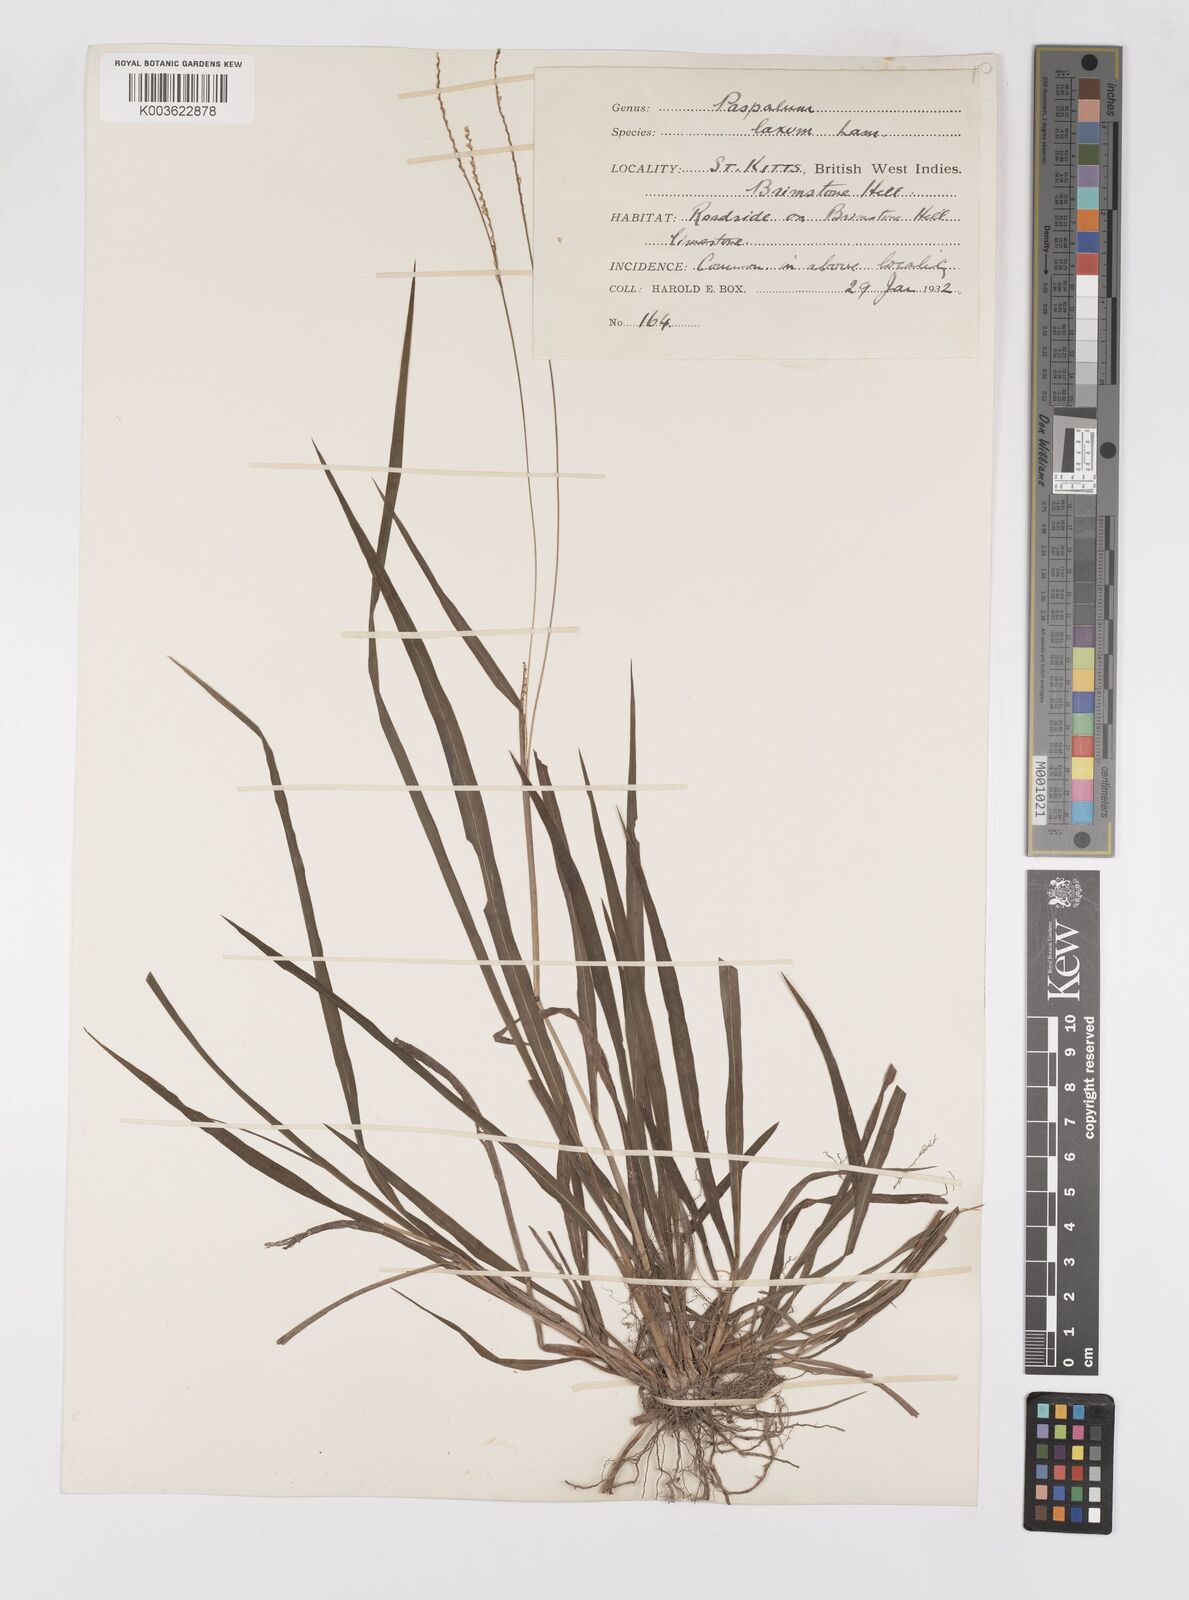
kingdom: Plantae
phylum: Tracheophyta
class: Liliopsida
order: Poales
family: Poaceae
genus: Paspalum
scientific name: Paspalum laxum
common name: Coconut paspalum
